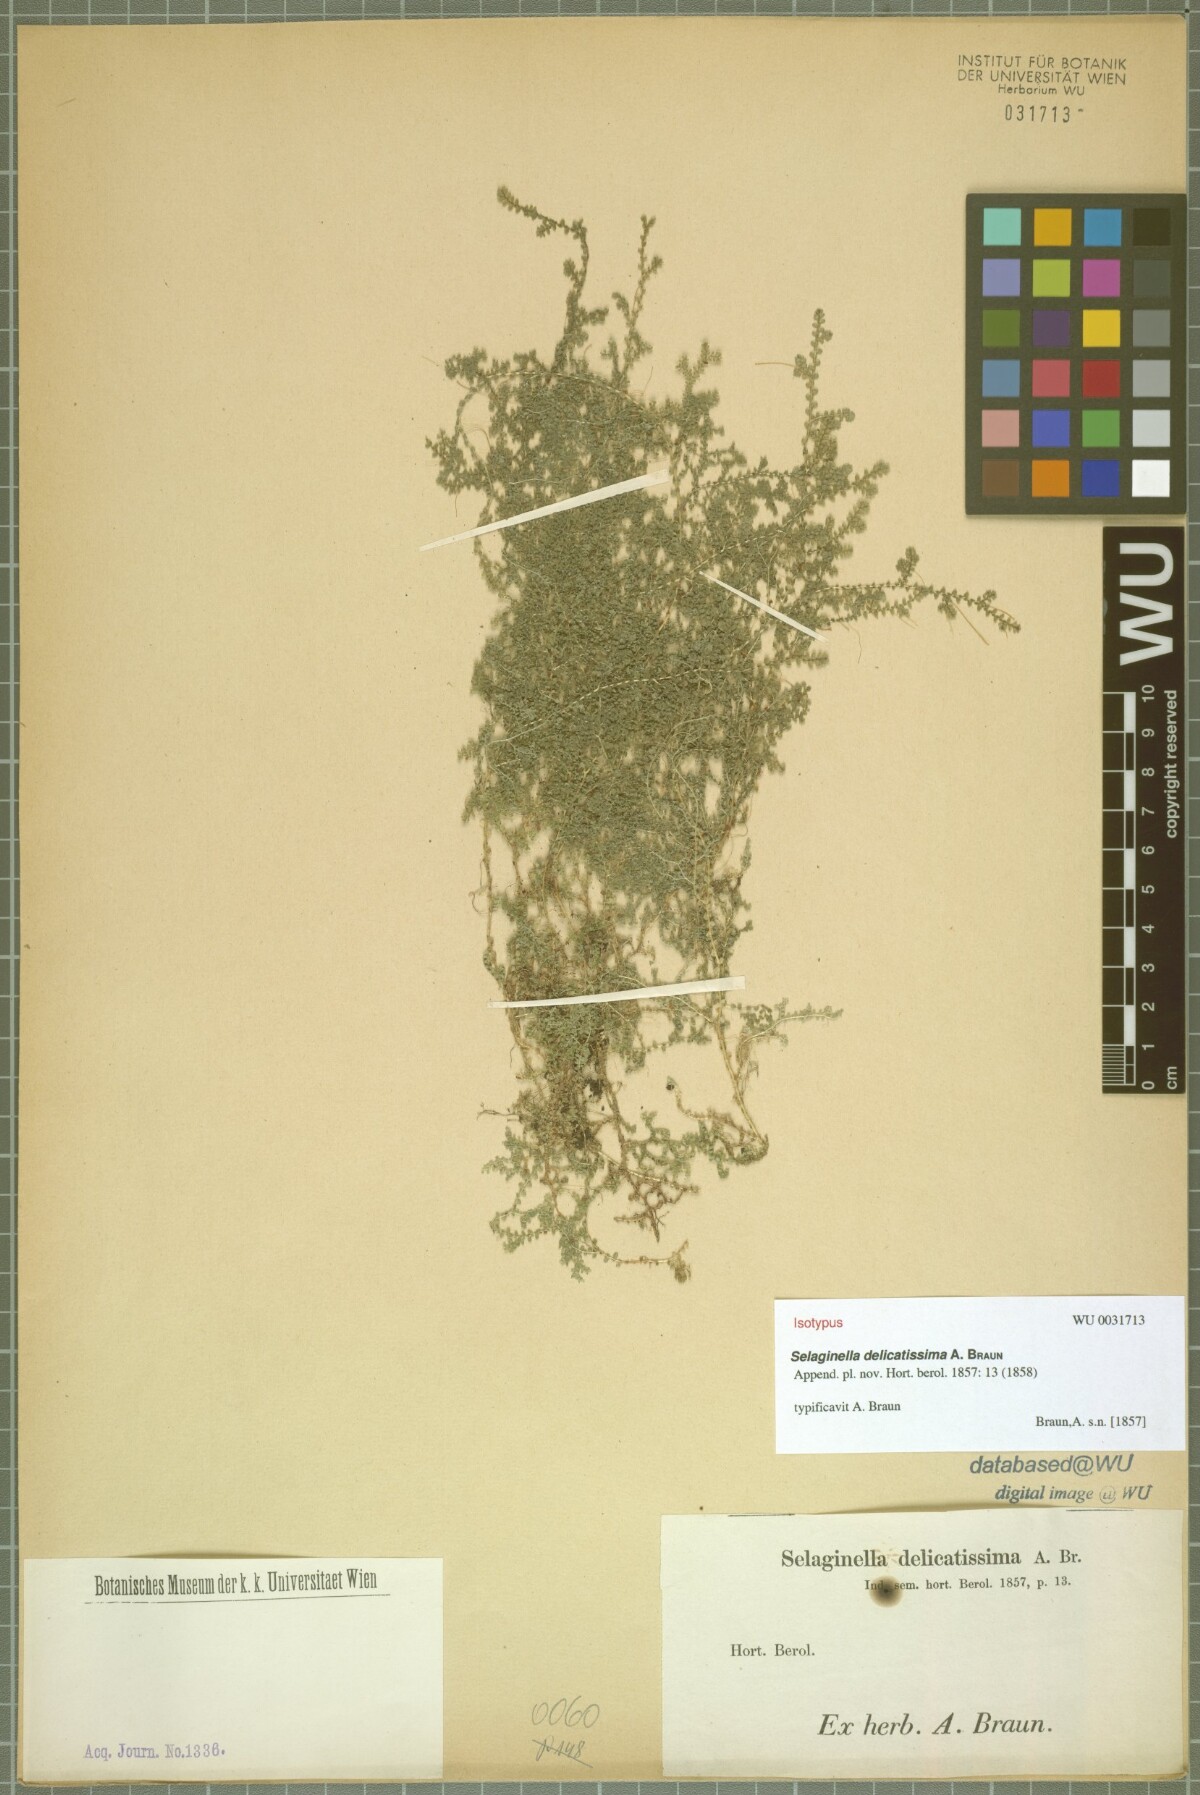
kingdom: Plantae
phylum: Tracheophyta
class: Lycopodiopsida
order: Selaginellales
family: Selaginellaceae
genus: Selaginella
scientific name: Selaginella delicatissima
